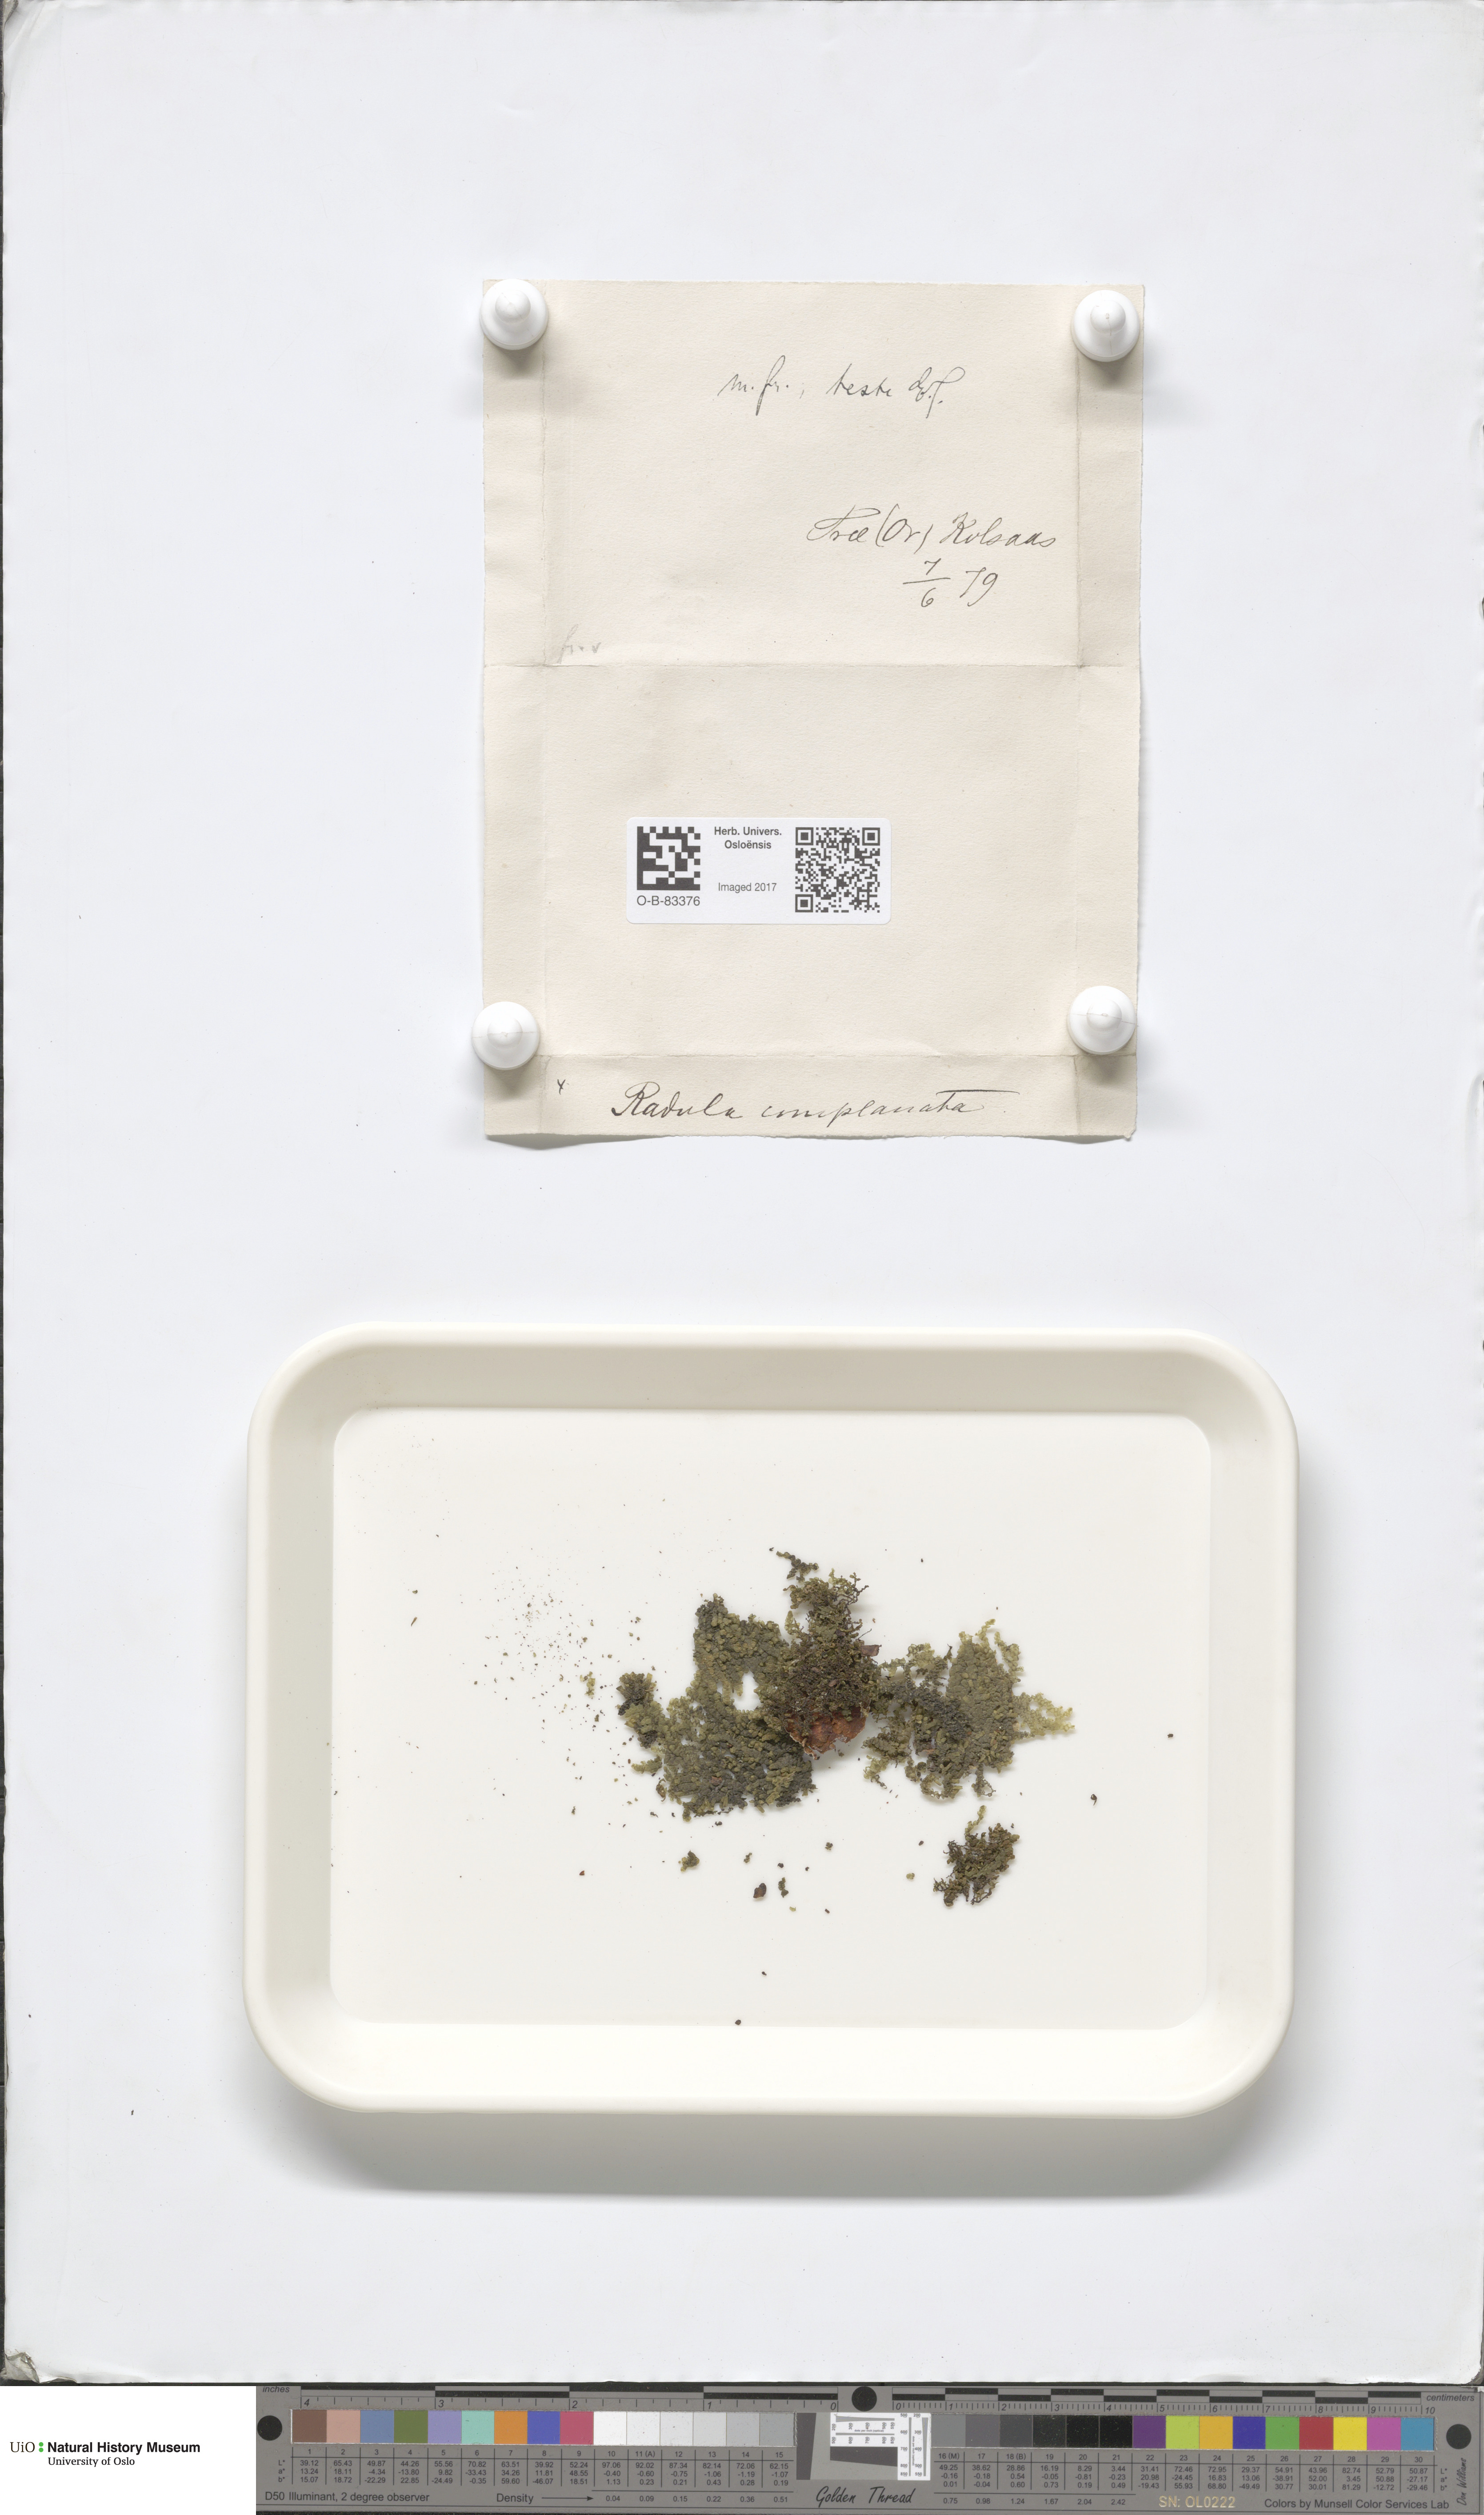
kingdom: Plantae
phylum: Marchantiophyta
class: Jungermanniopsida
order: Porellales
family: Radulaceae
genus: Radula
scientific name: Radula complanata
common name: Flat-leaved scalewort
